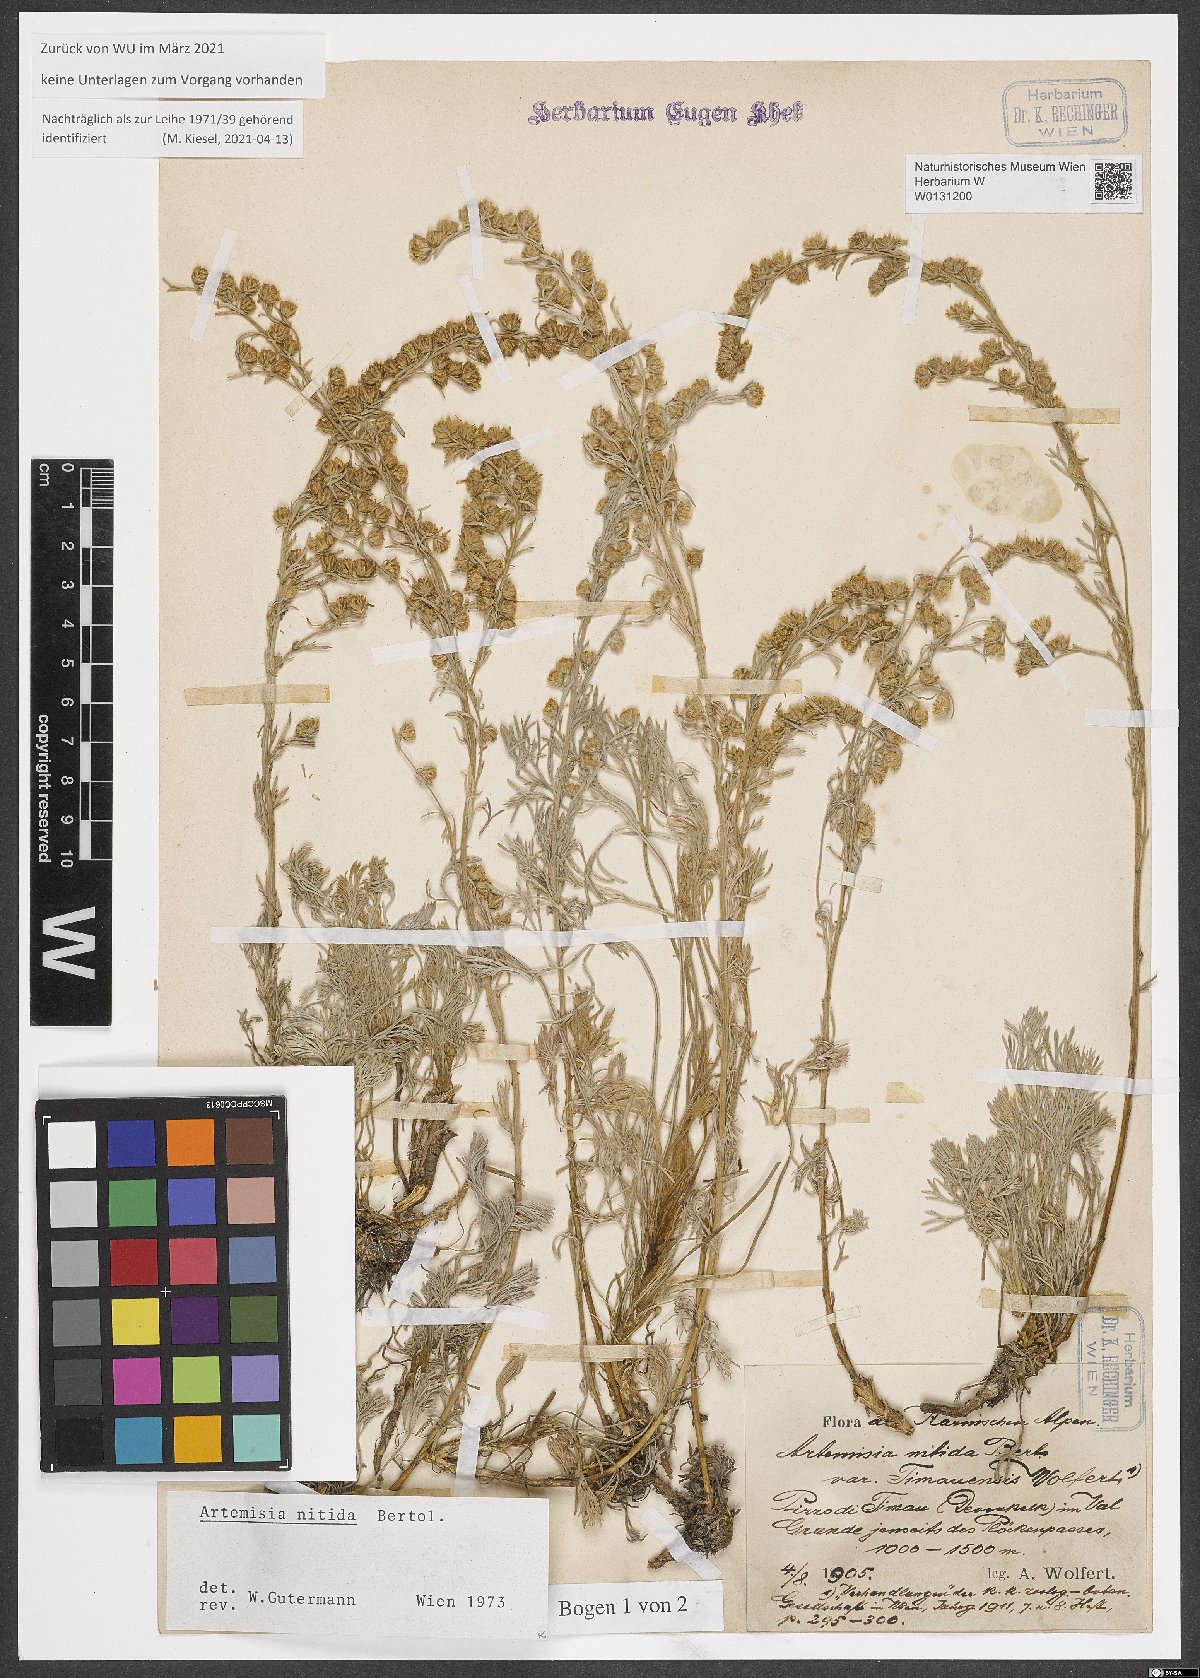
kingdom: Plantae
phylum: Tracheophyta
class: Magnoliopsida
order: Asterales
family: Asteraceae
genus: Artemisia
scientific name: Artemisia nitida
